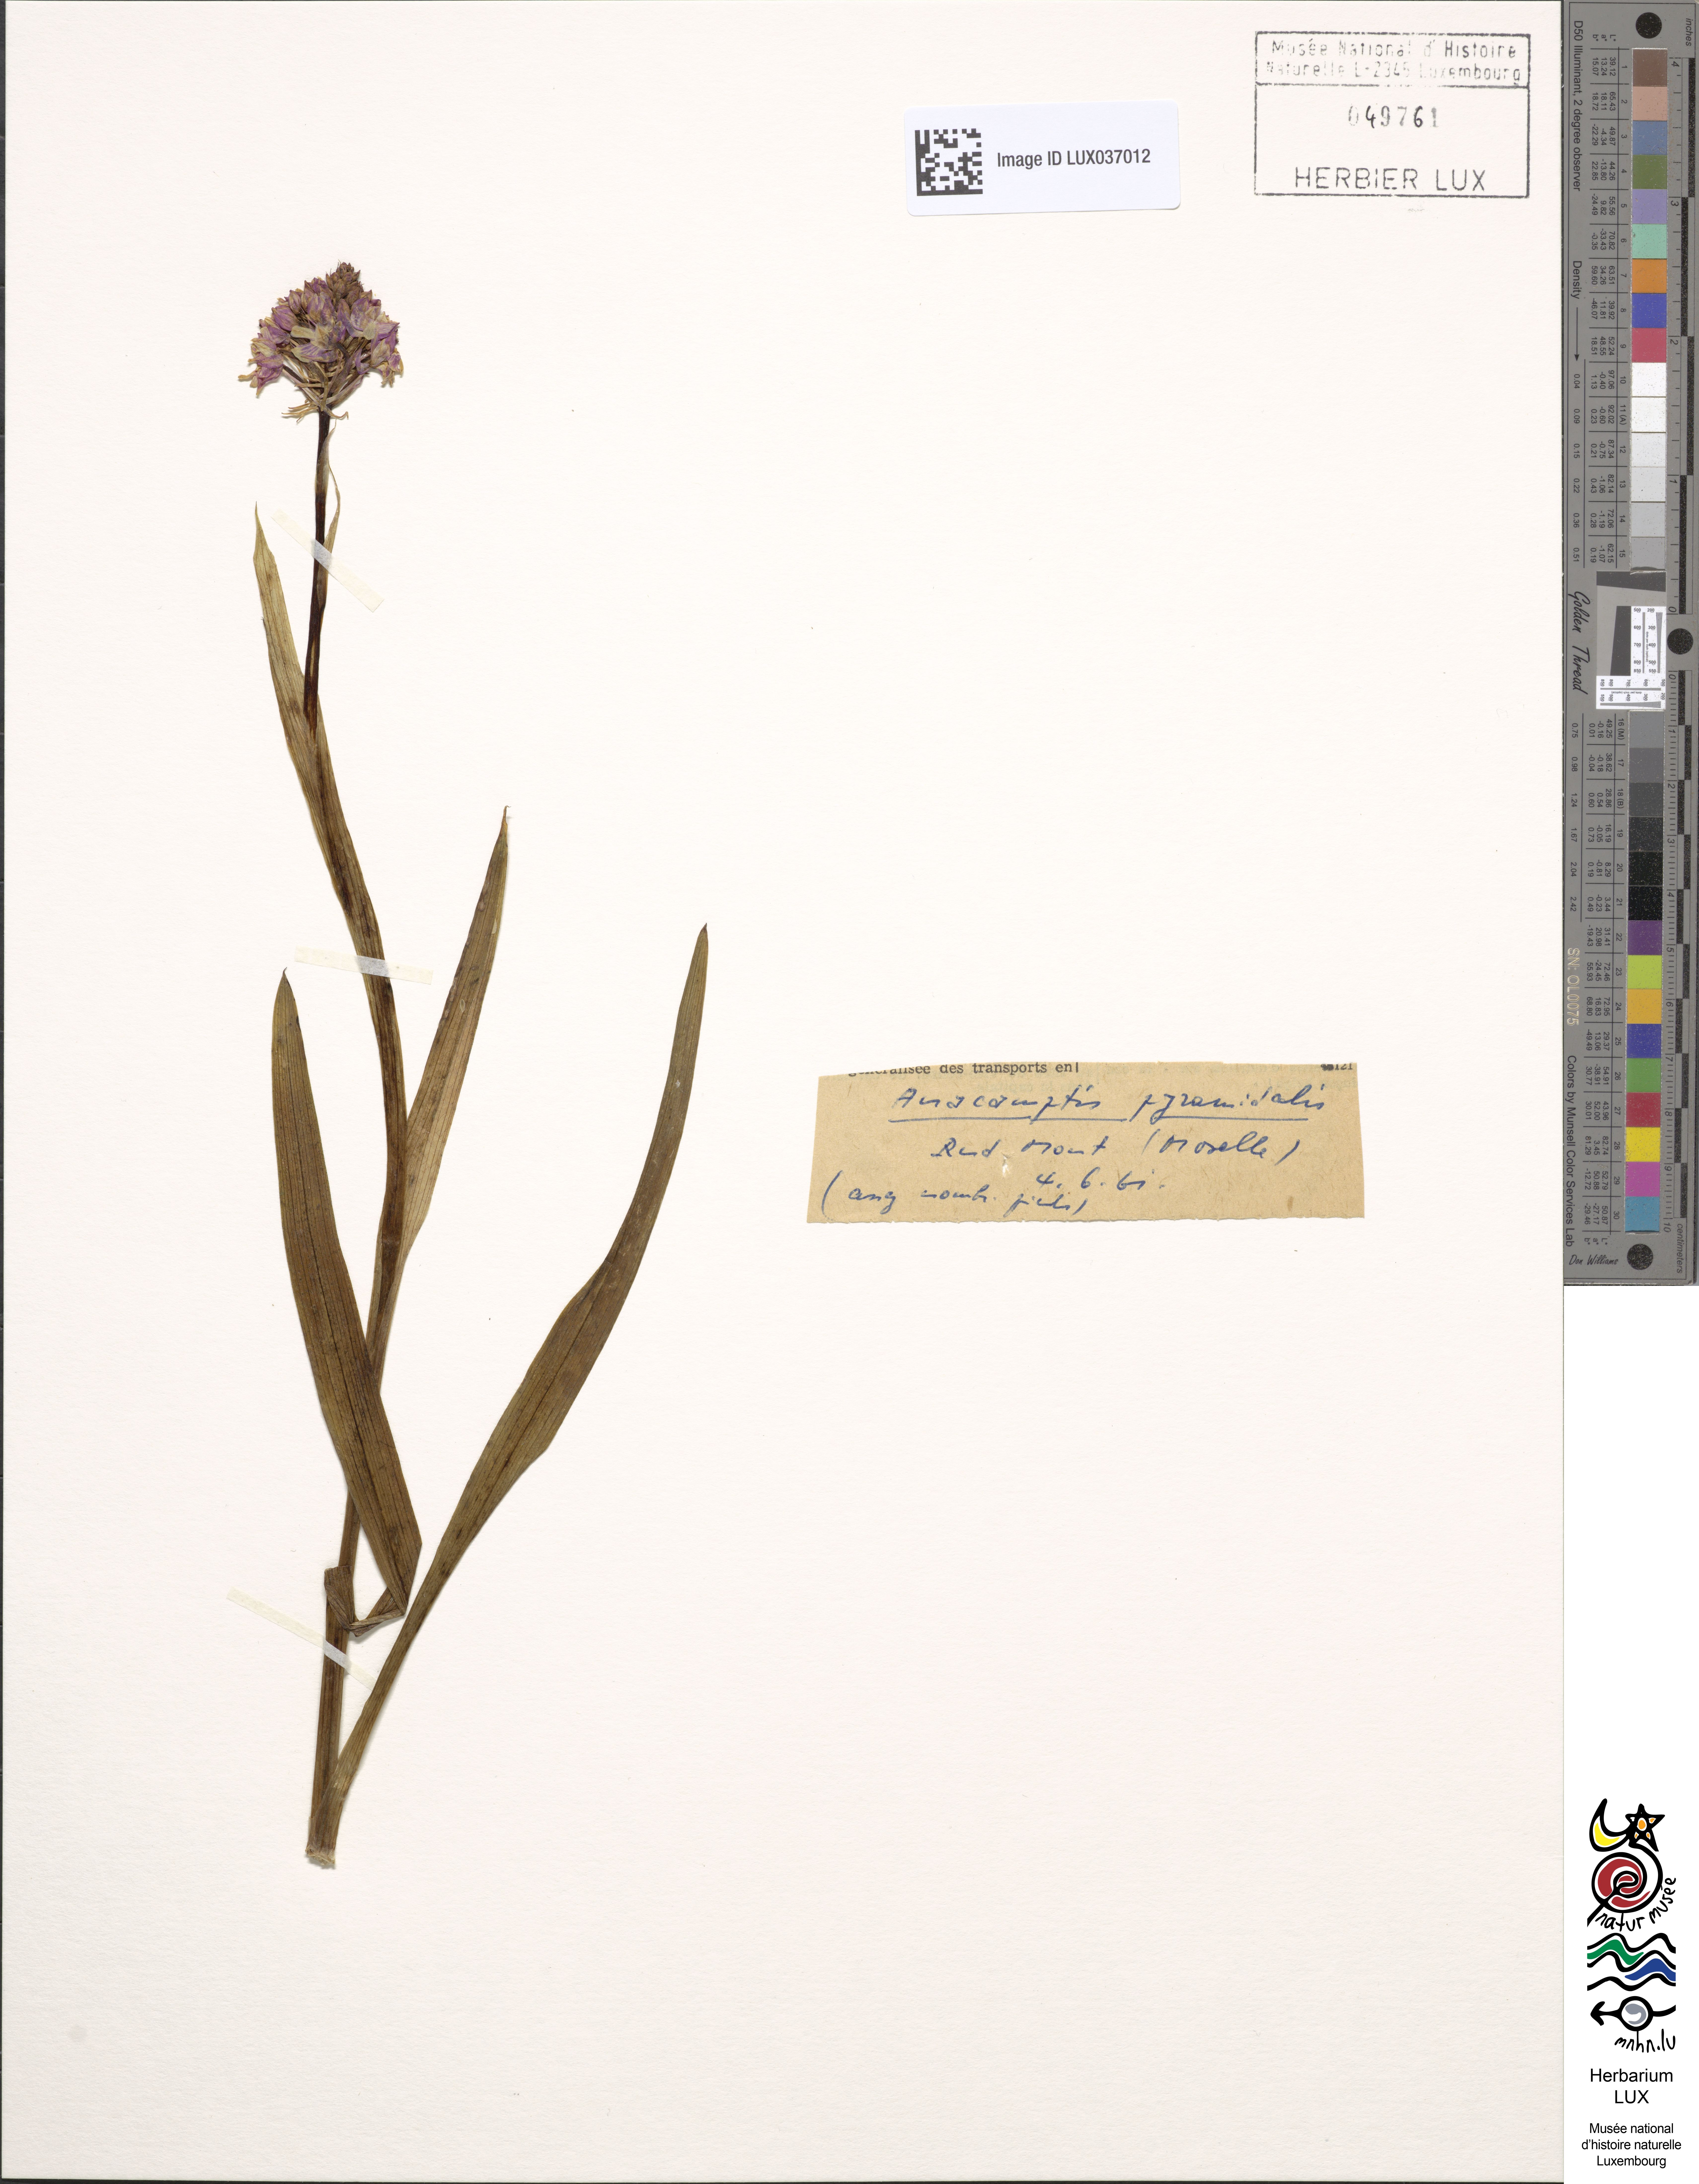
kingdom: Plantae
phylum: Tracheophyta
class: Liliopsida
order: Asparagales
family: Orchidaceae
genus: Anacamptis
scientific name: Anacamptis pyramidalis
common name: Pyramidal orchid
